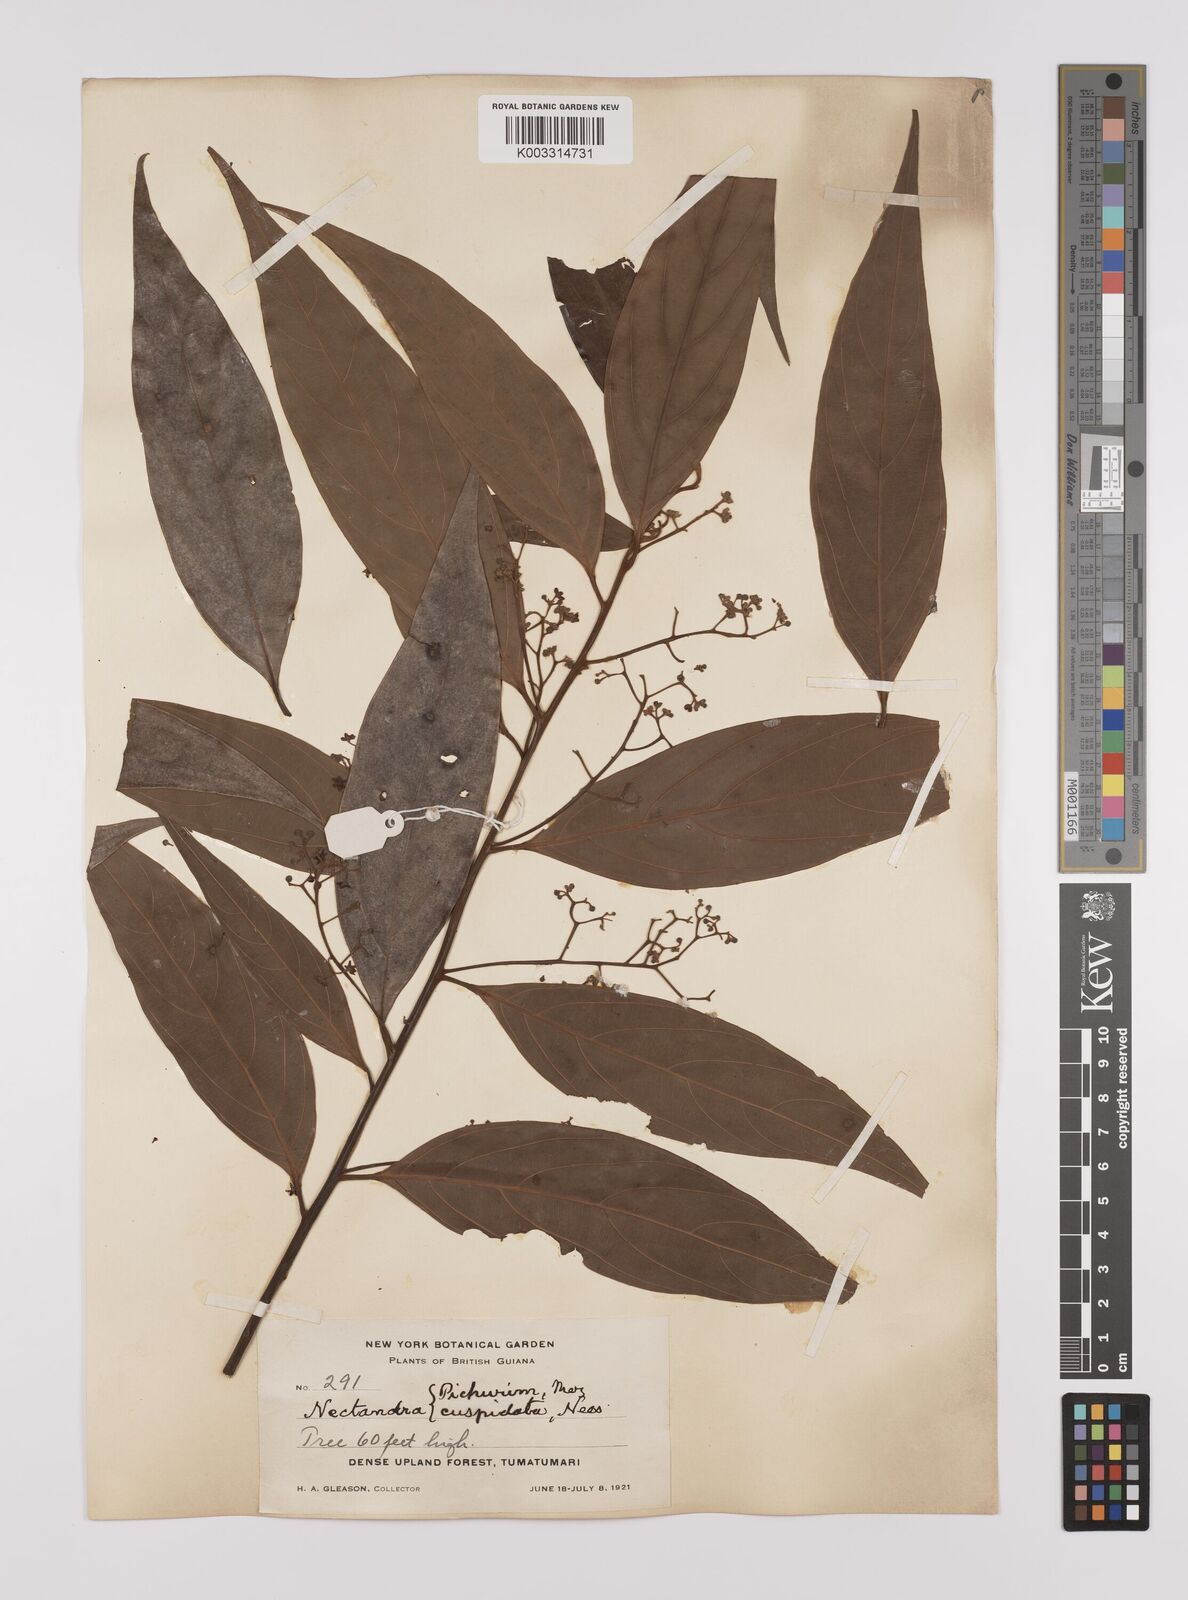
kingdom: Plantae
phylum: Tracheophyta
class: Magnoliopsida
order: Laurales
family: Lauraceae
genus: Nectandra
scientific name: Nectandra cuspidata
